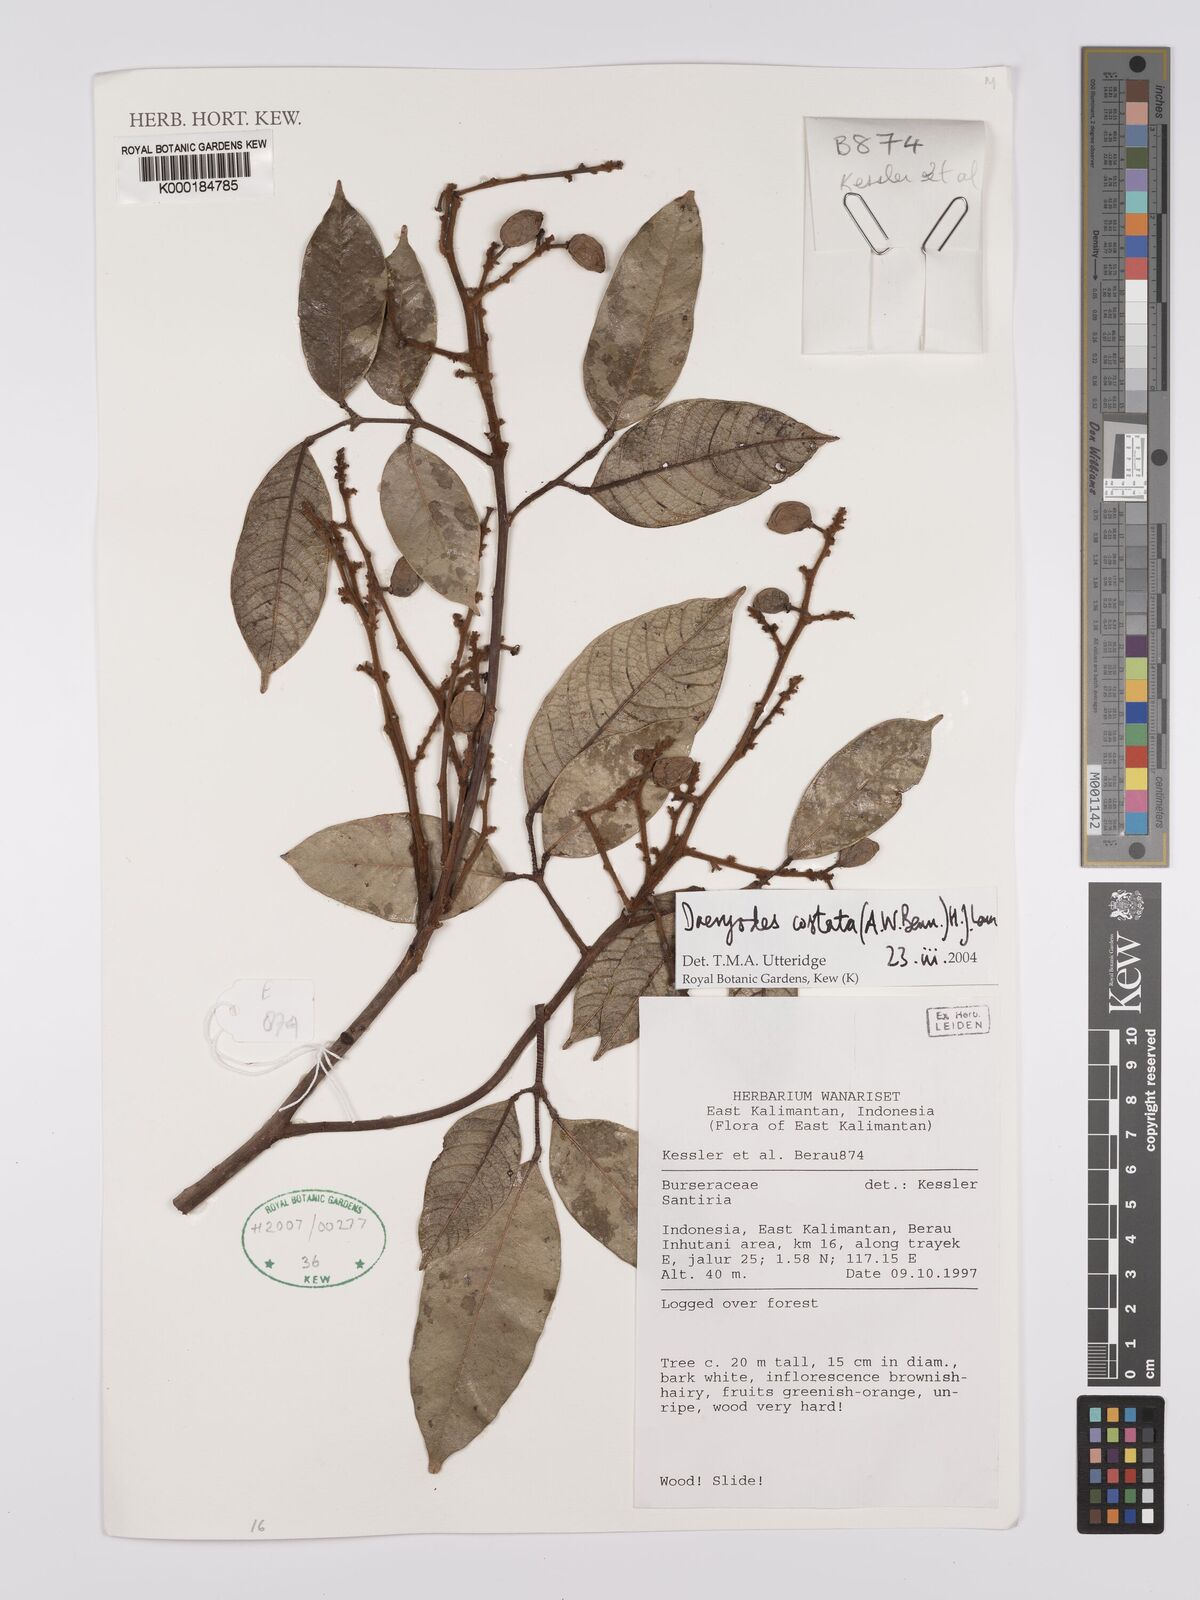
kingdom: Plantae
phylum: Tracheophyta
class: Magnoliopsida
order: Sapindales
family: Burseraceae
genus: Dacryodes
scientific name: Dacryodes costata
